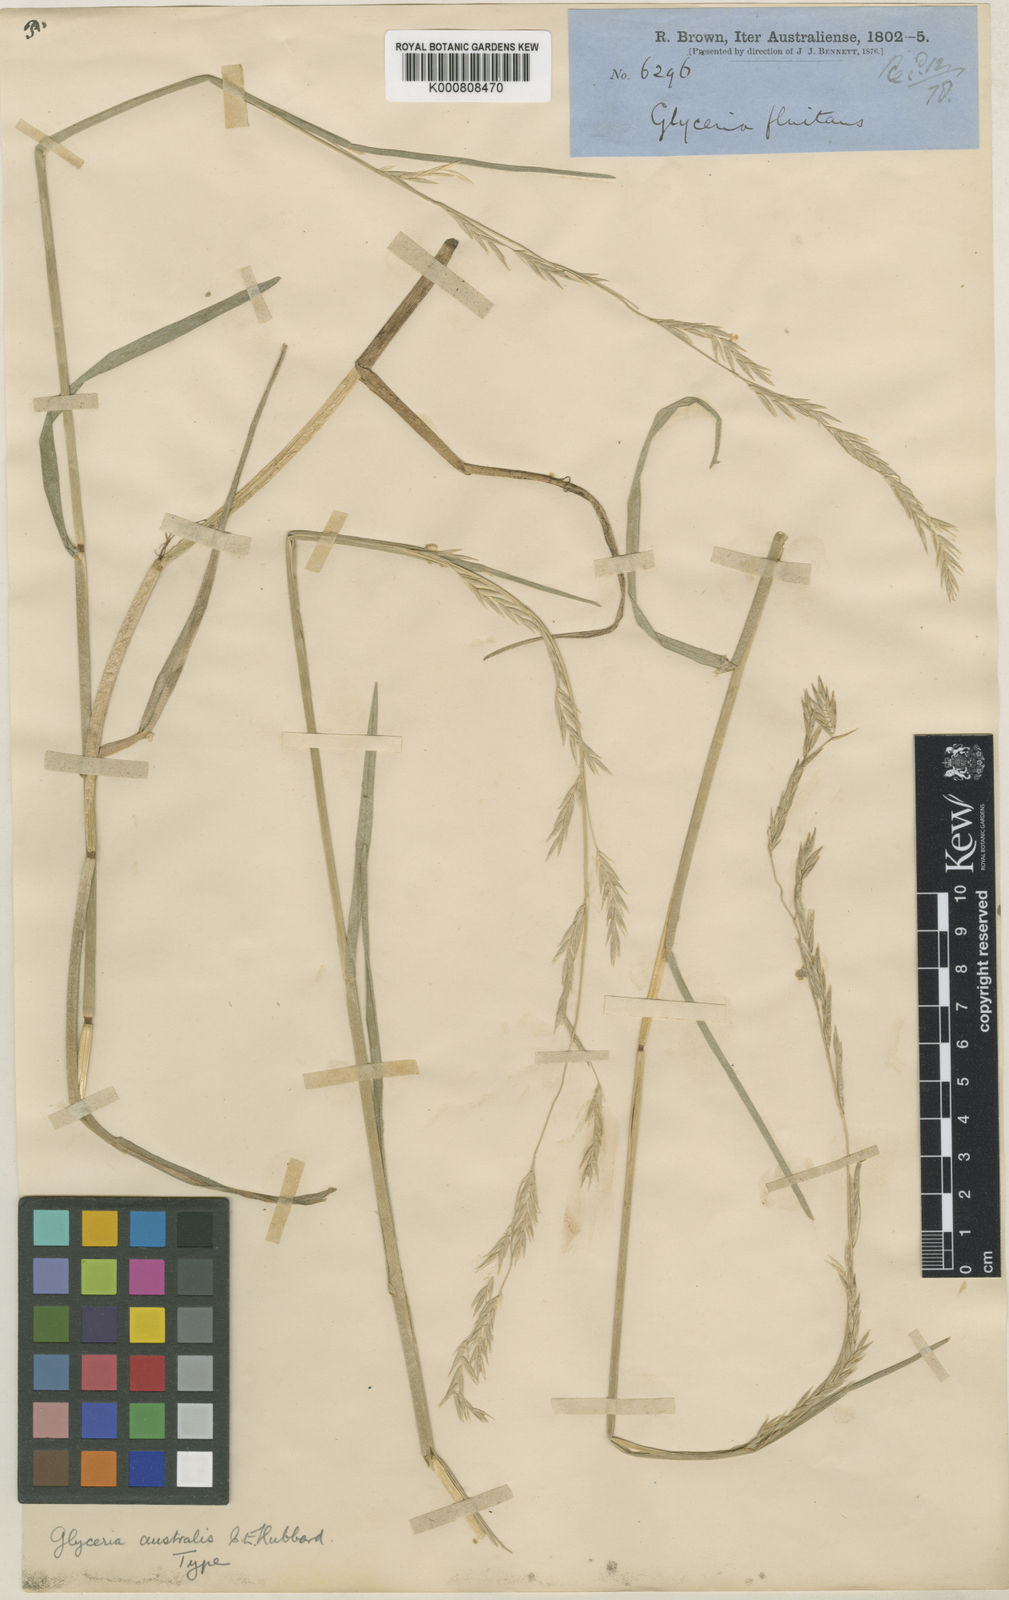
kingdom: Plantae
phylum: Tracheophyta
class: Liliopsida
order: Poales
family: Poaceae
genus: Glyceria
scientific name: Glyceria australis
